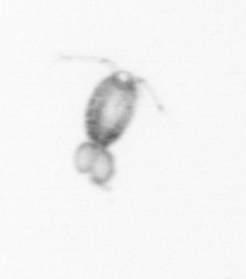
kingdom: Animalia
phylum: Arthropoda
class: Copepoda
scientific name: Copepoda
